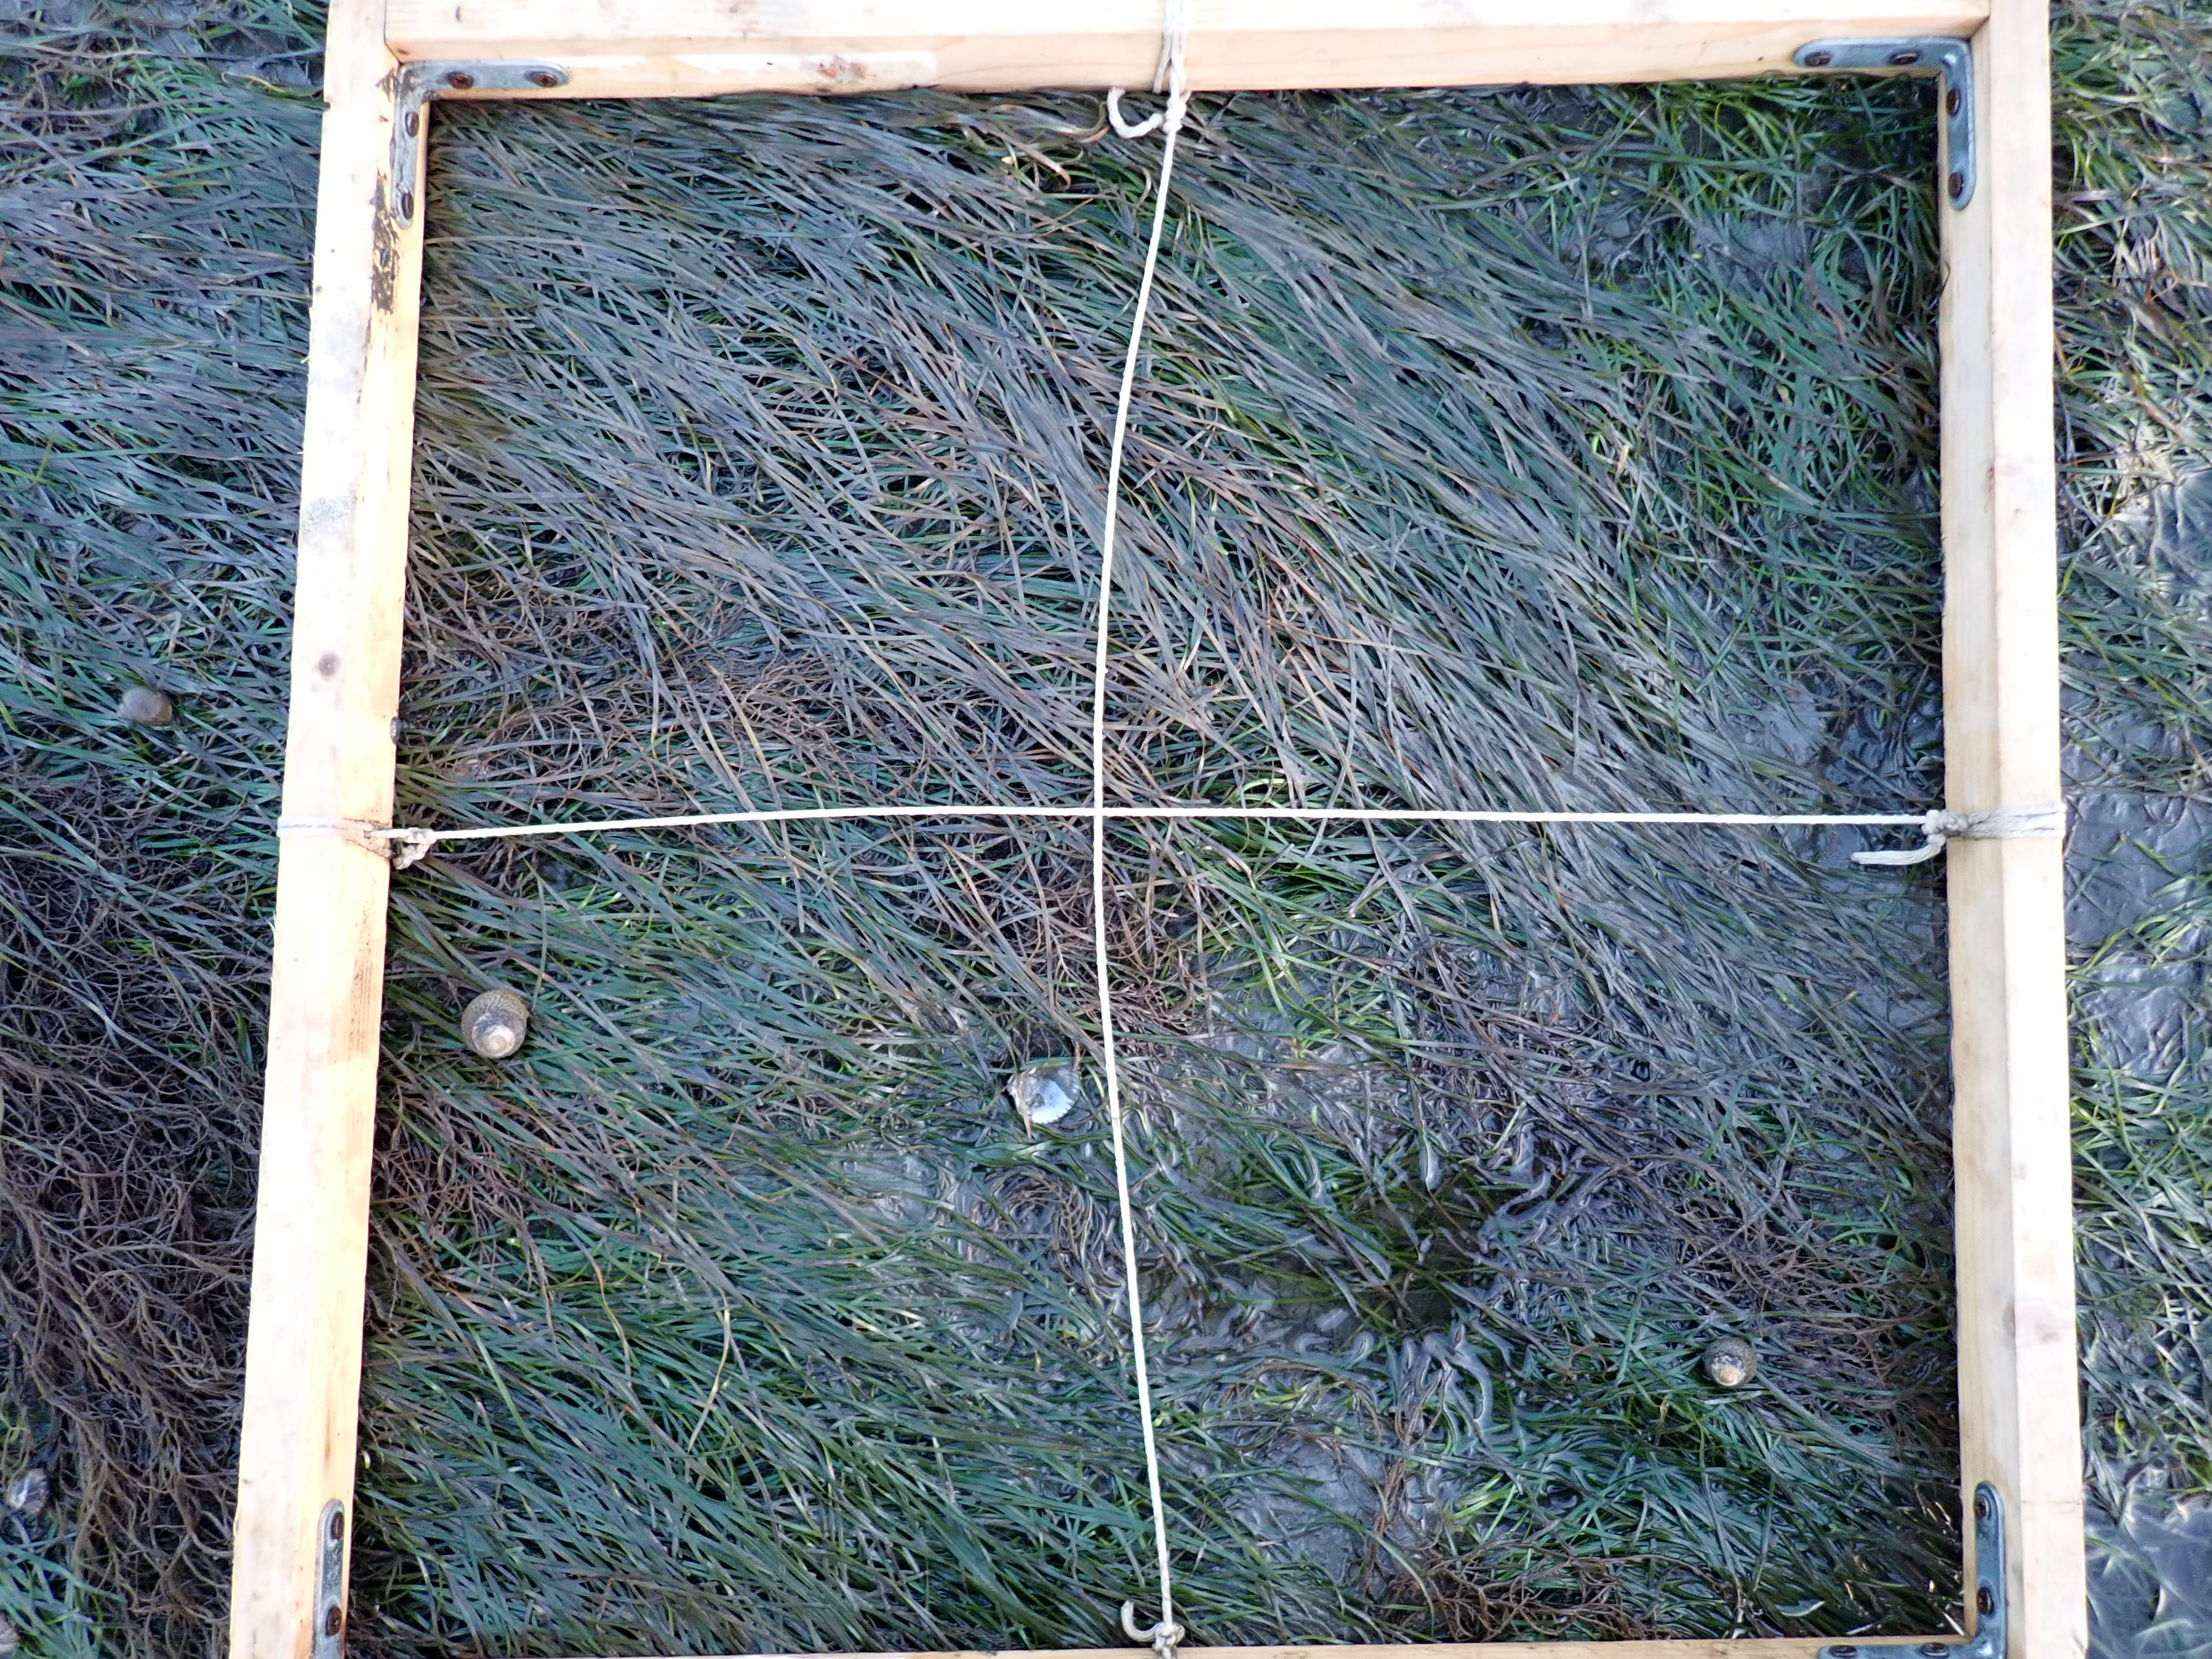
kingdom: Plantae
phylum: Tracheophyta
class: Liliopsida
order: Alismatales
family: Zosteraceae
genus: Zostera
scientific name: Zostera noltii
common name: Dwarf eelgrass
